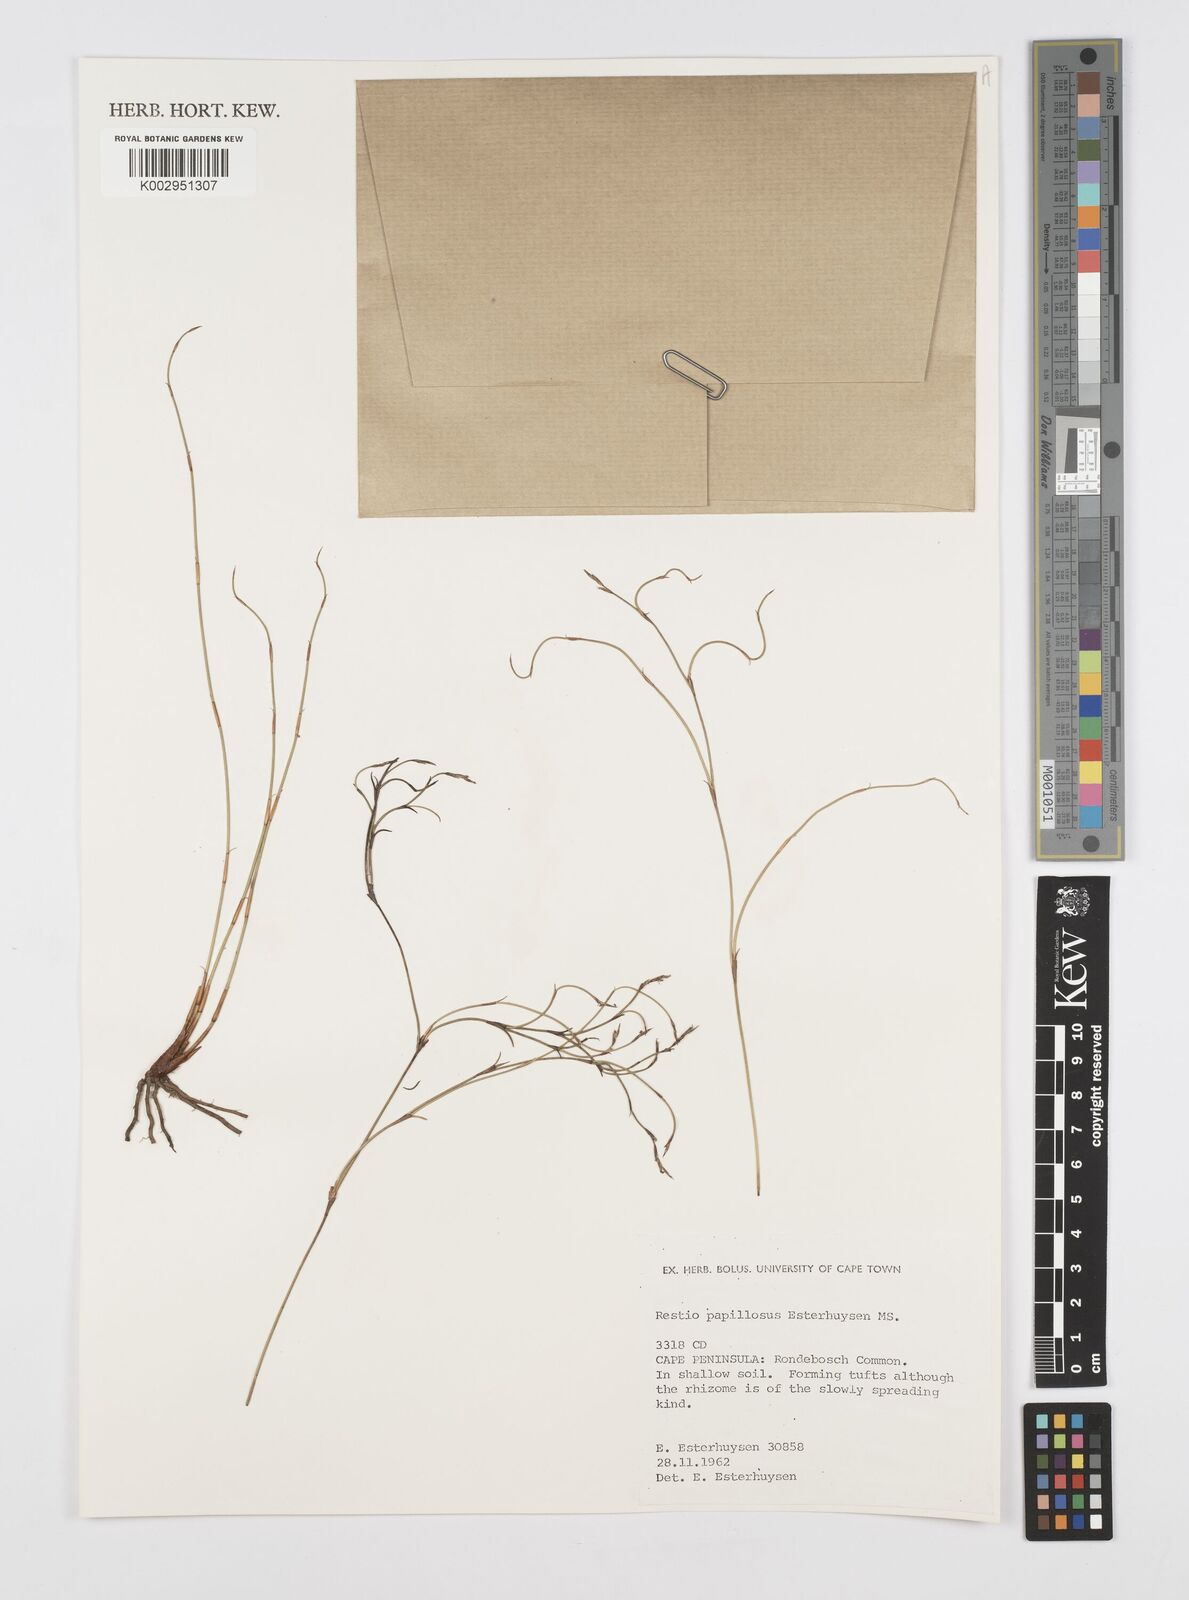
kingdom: Plantae
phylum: Tracheophyta
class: Liliopsida
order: Poales
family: Restionaceae
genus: Restio
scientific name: Restio papillosus
